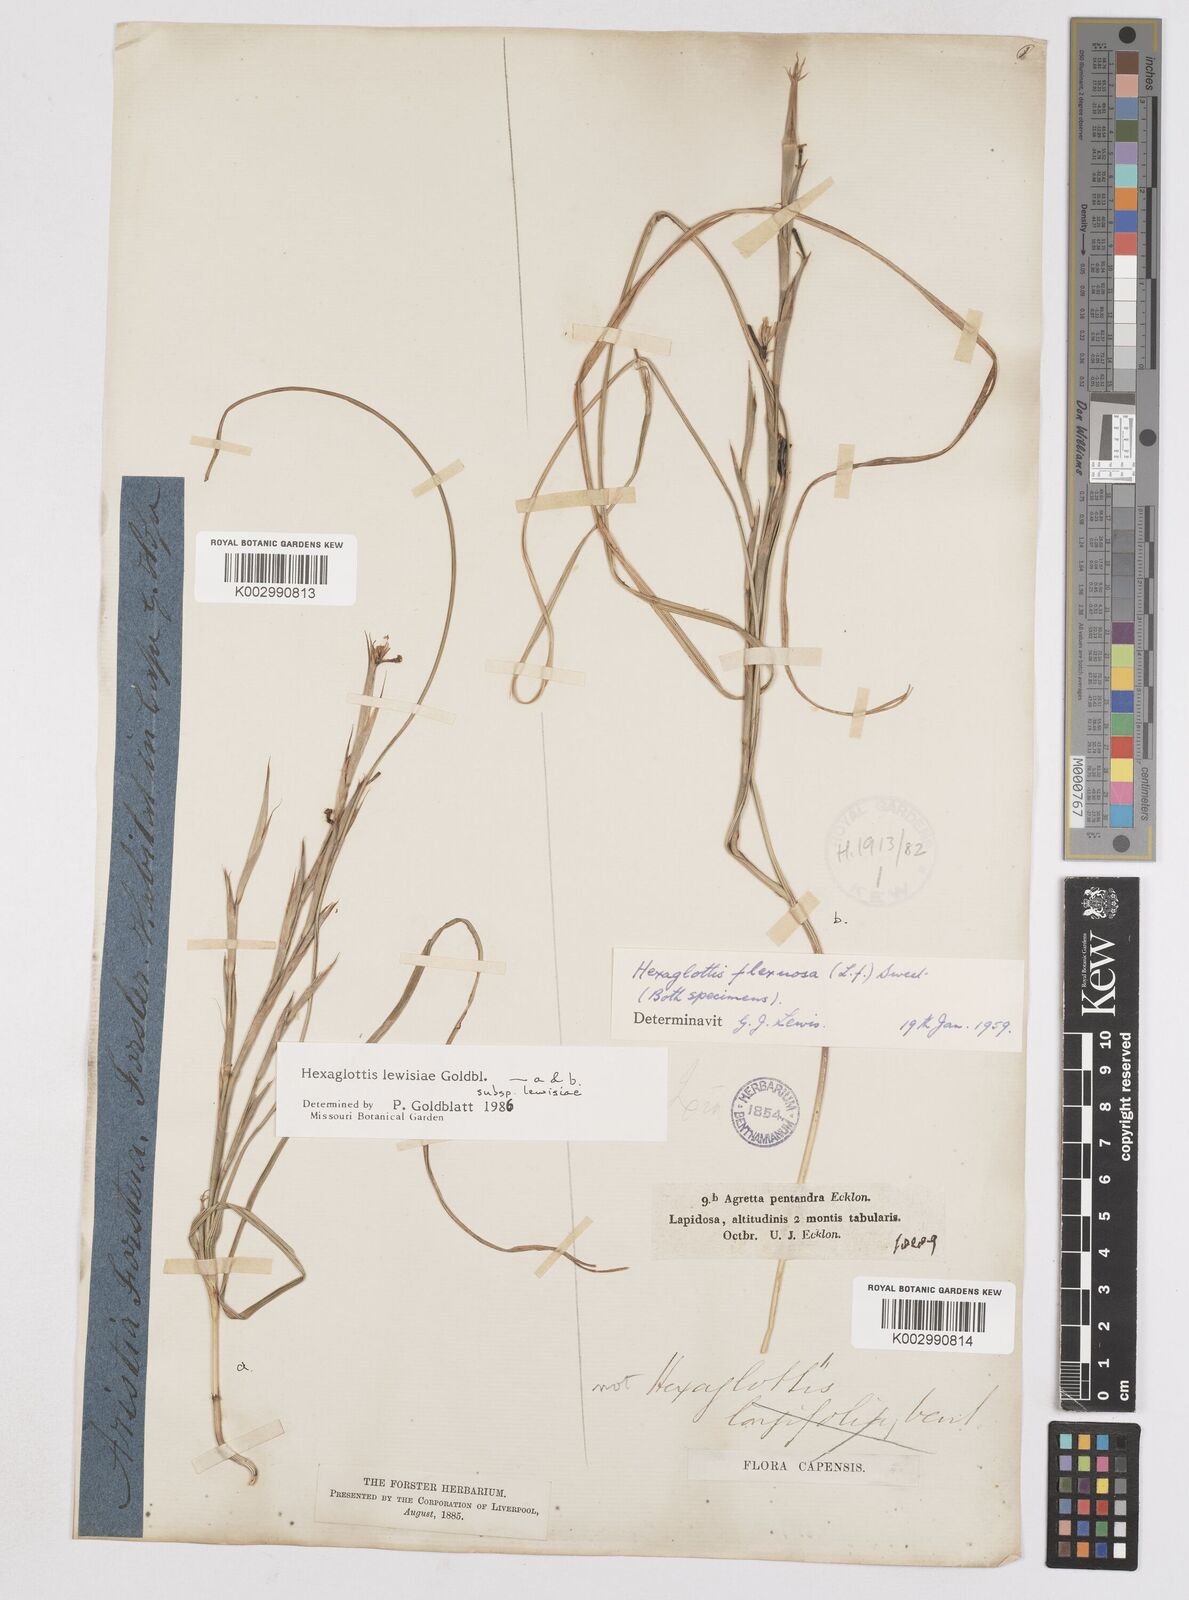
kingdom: Plantae
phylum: Tracheophyta
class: Liliopsida
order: Asparagales
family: Iridaceae
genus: Moraea
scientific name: Moraea lewisiae
